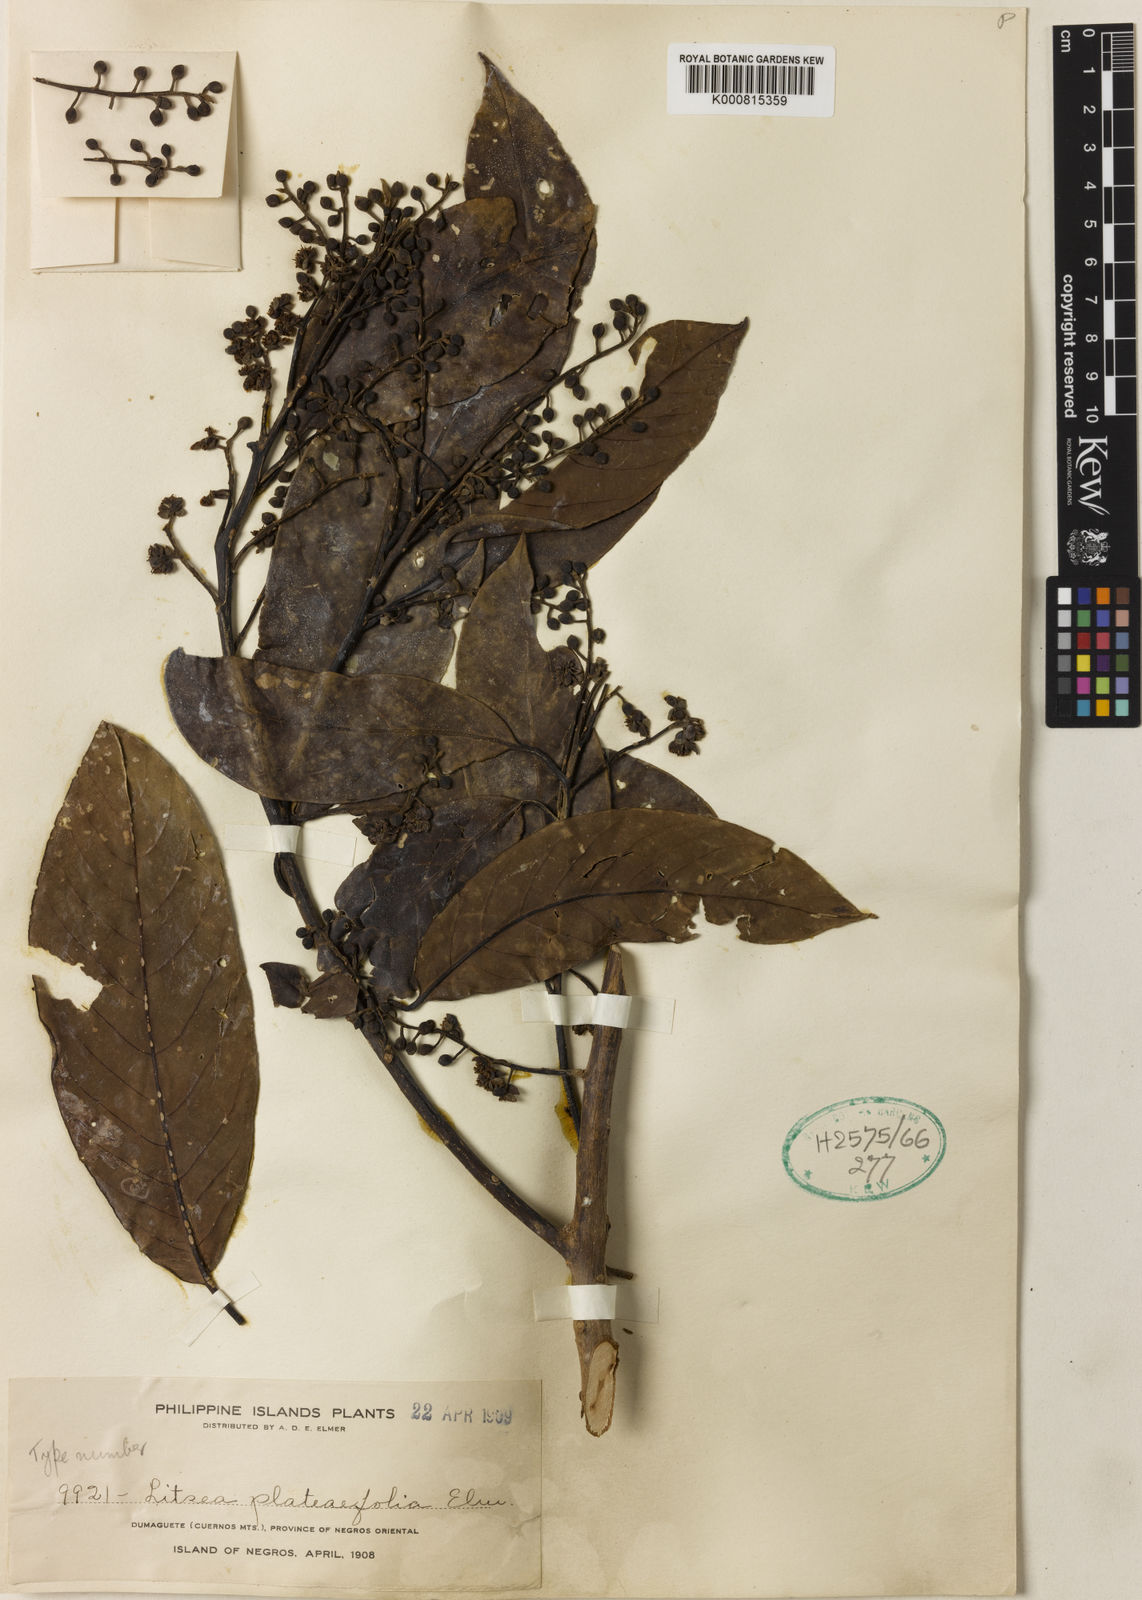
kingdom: Plantae
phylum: Tracheophyta
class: Magnoliopsida
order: Laurales
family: Lauraceae
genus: Litsea
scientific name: Litsea plateifolia
